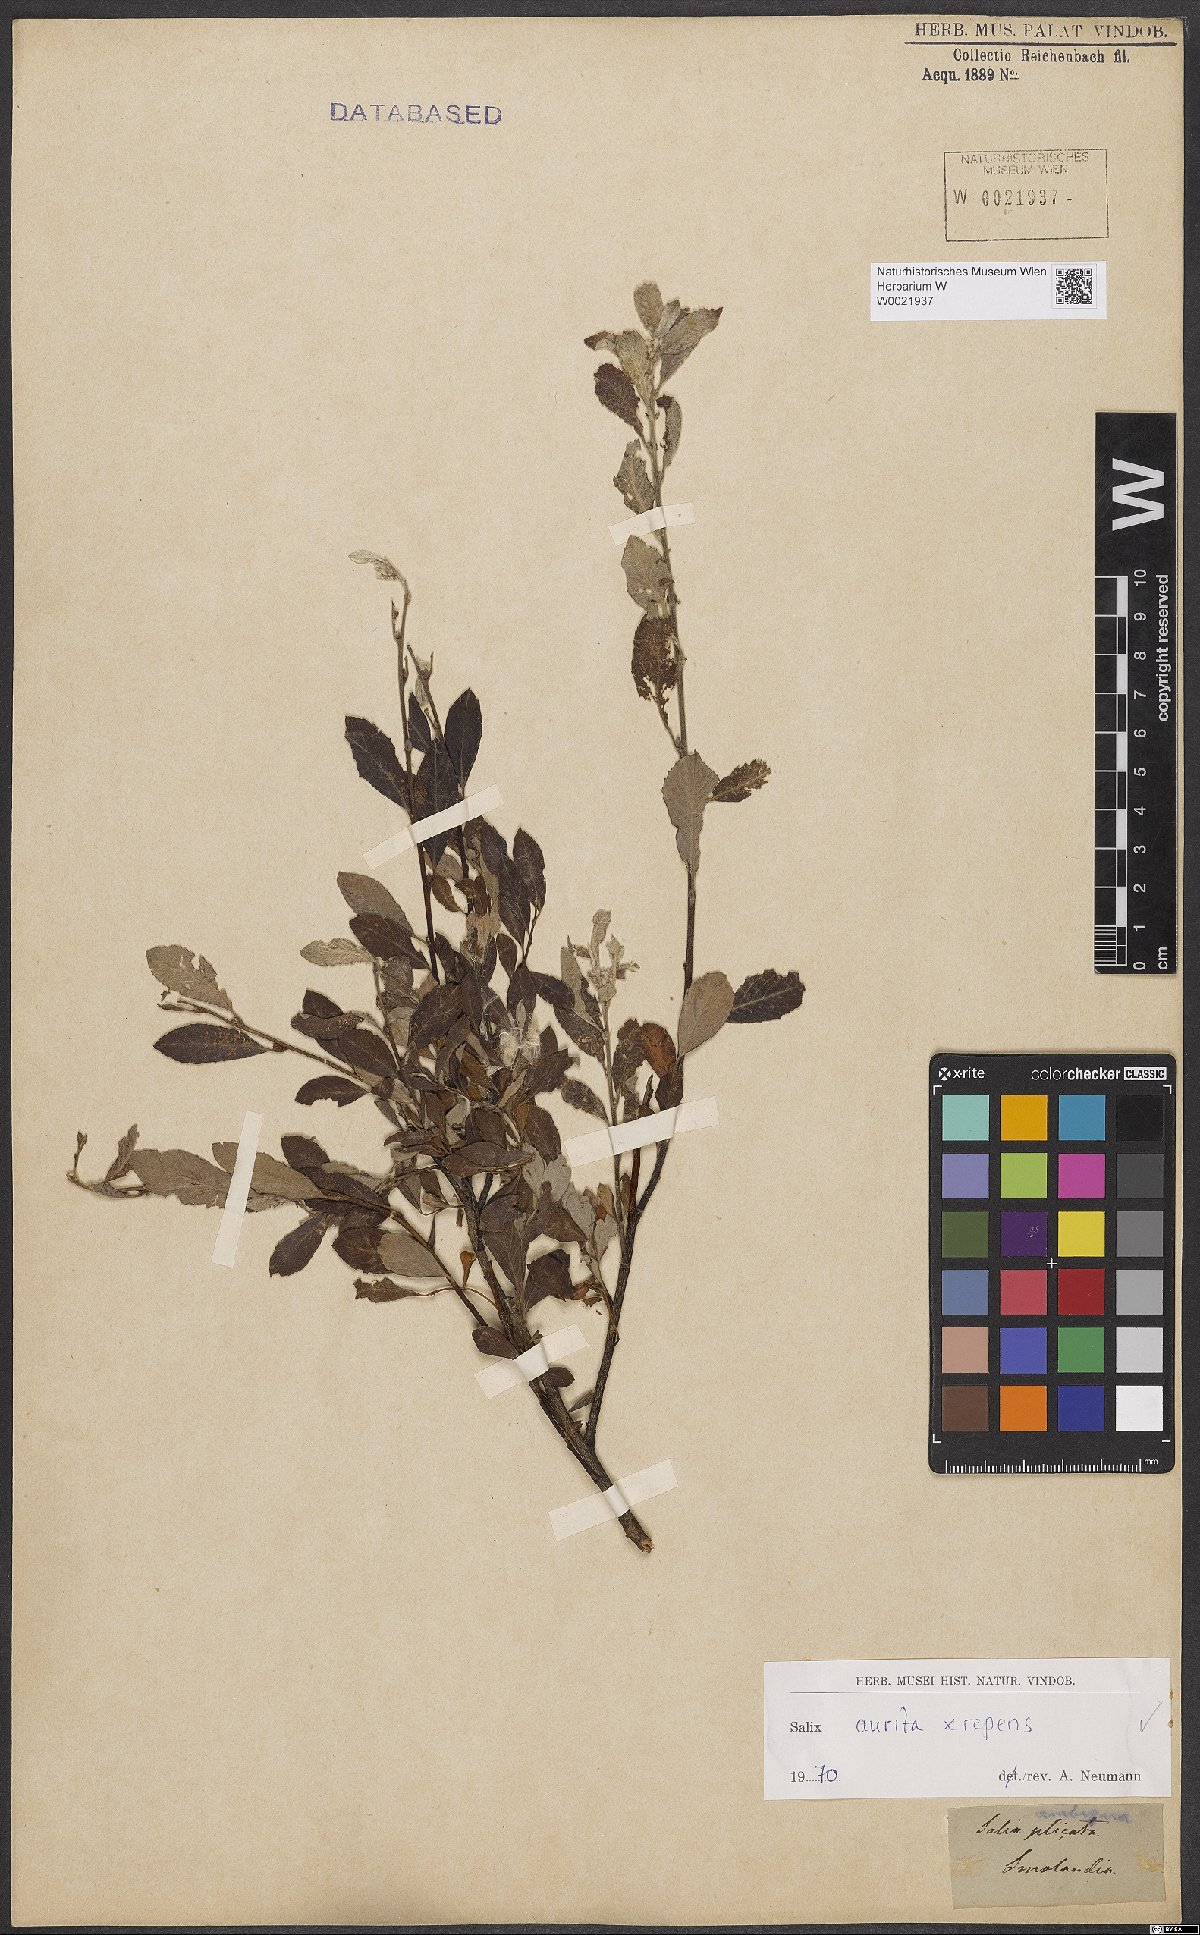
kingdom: Plantae
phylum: Tracheophyta
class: Magnoliopsida
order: Malpighiales
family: Salicaceae
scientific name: Salicaceae
